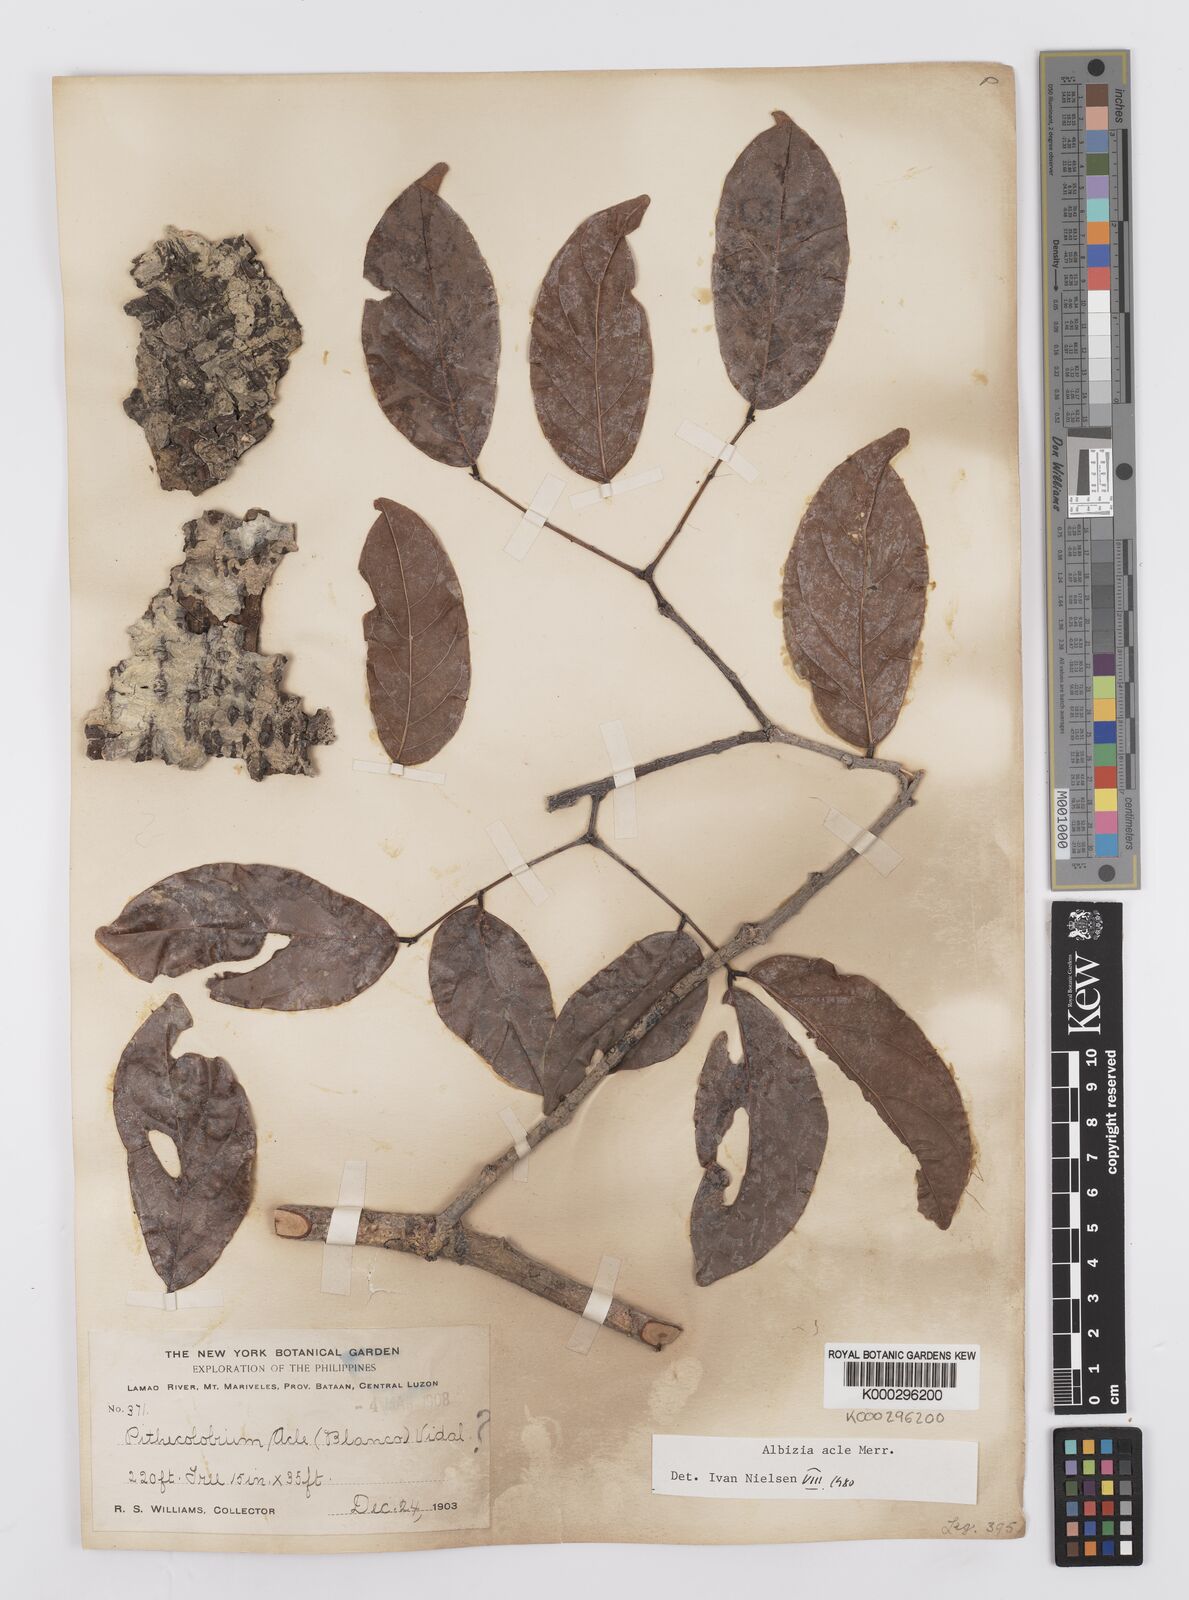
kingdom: Plantae
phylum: Tracheophyta
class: Magnoliopsida
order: Fabales
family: Fabaceae
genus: Albizia
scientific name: Albizia acle
